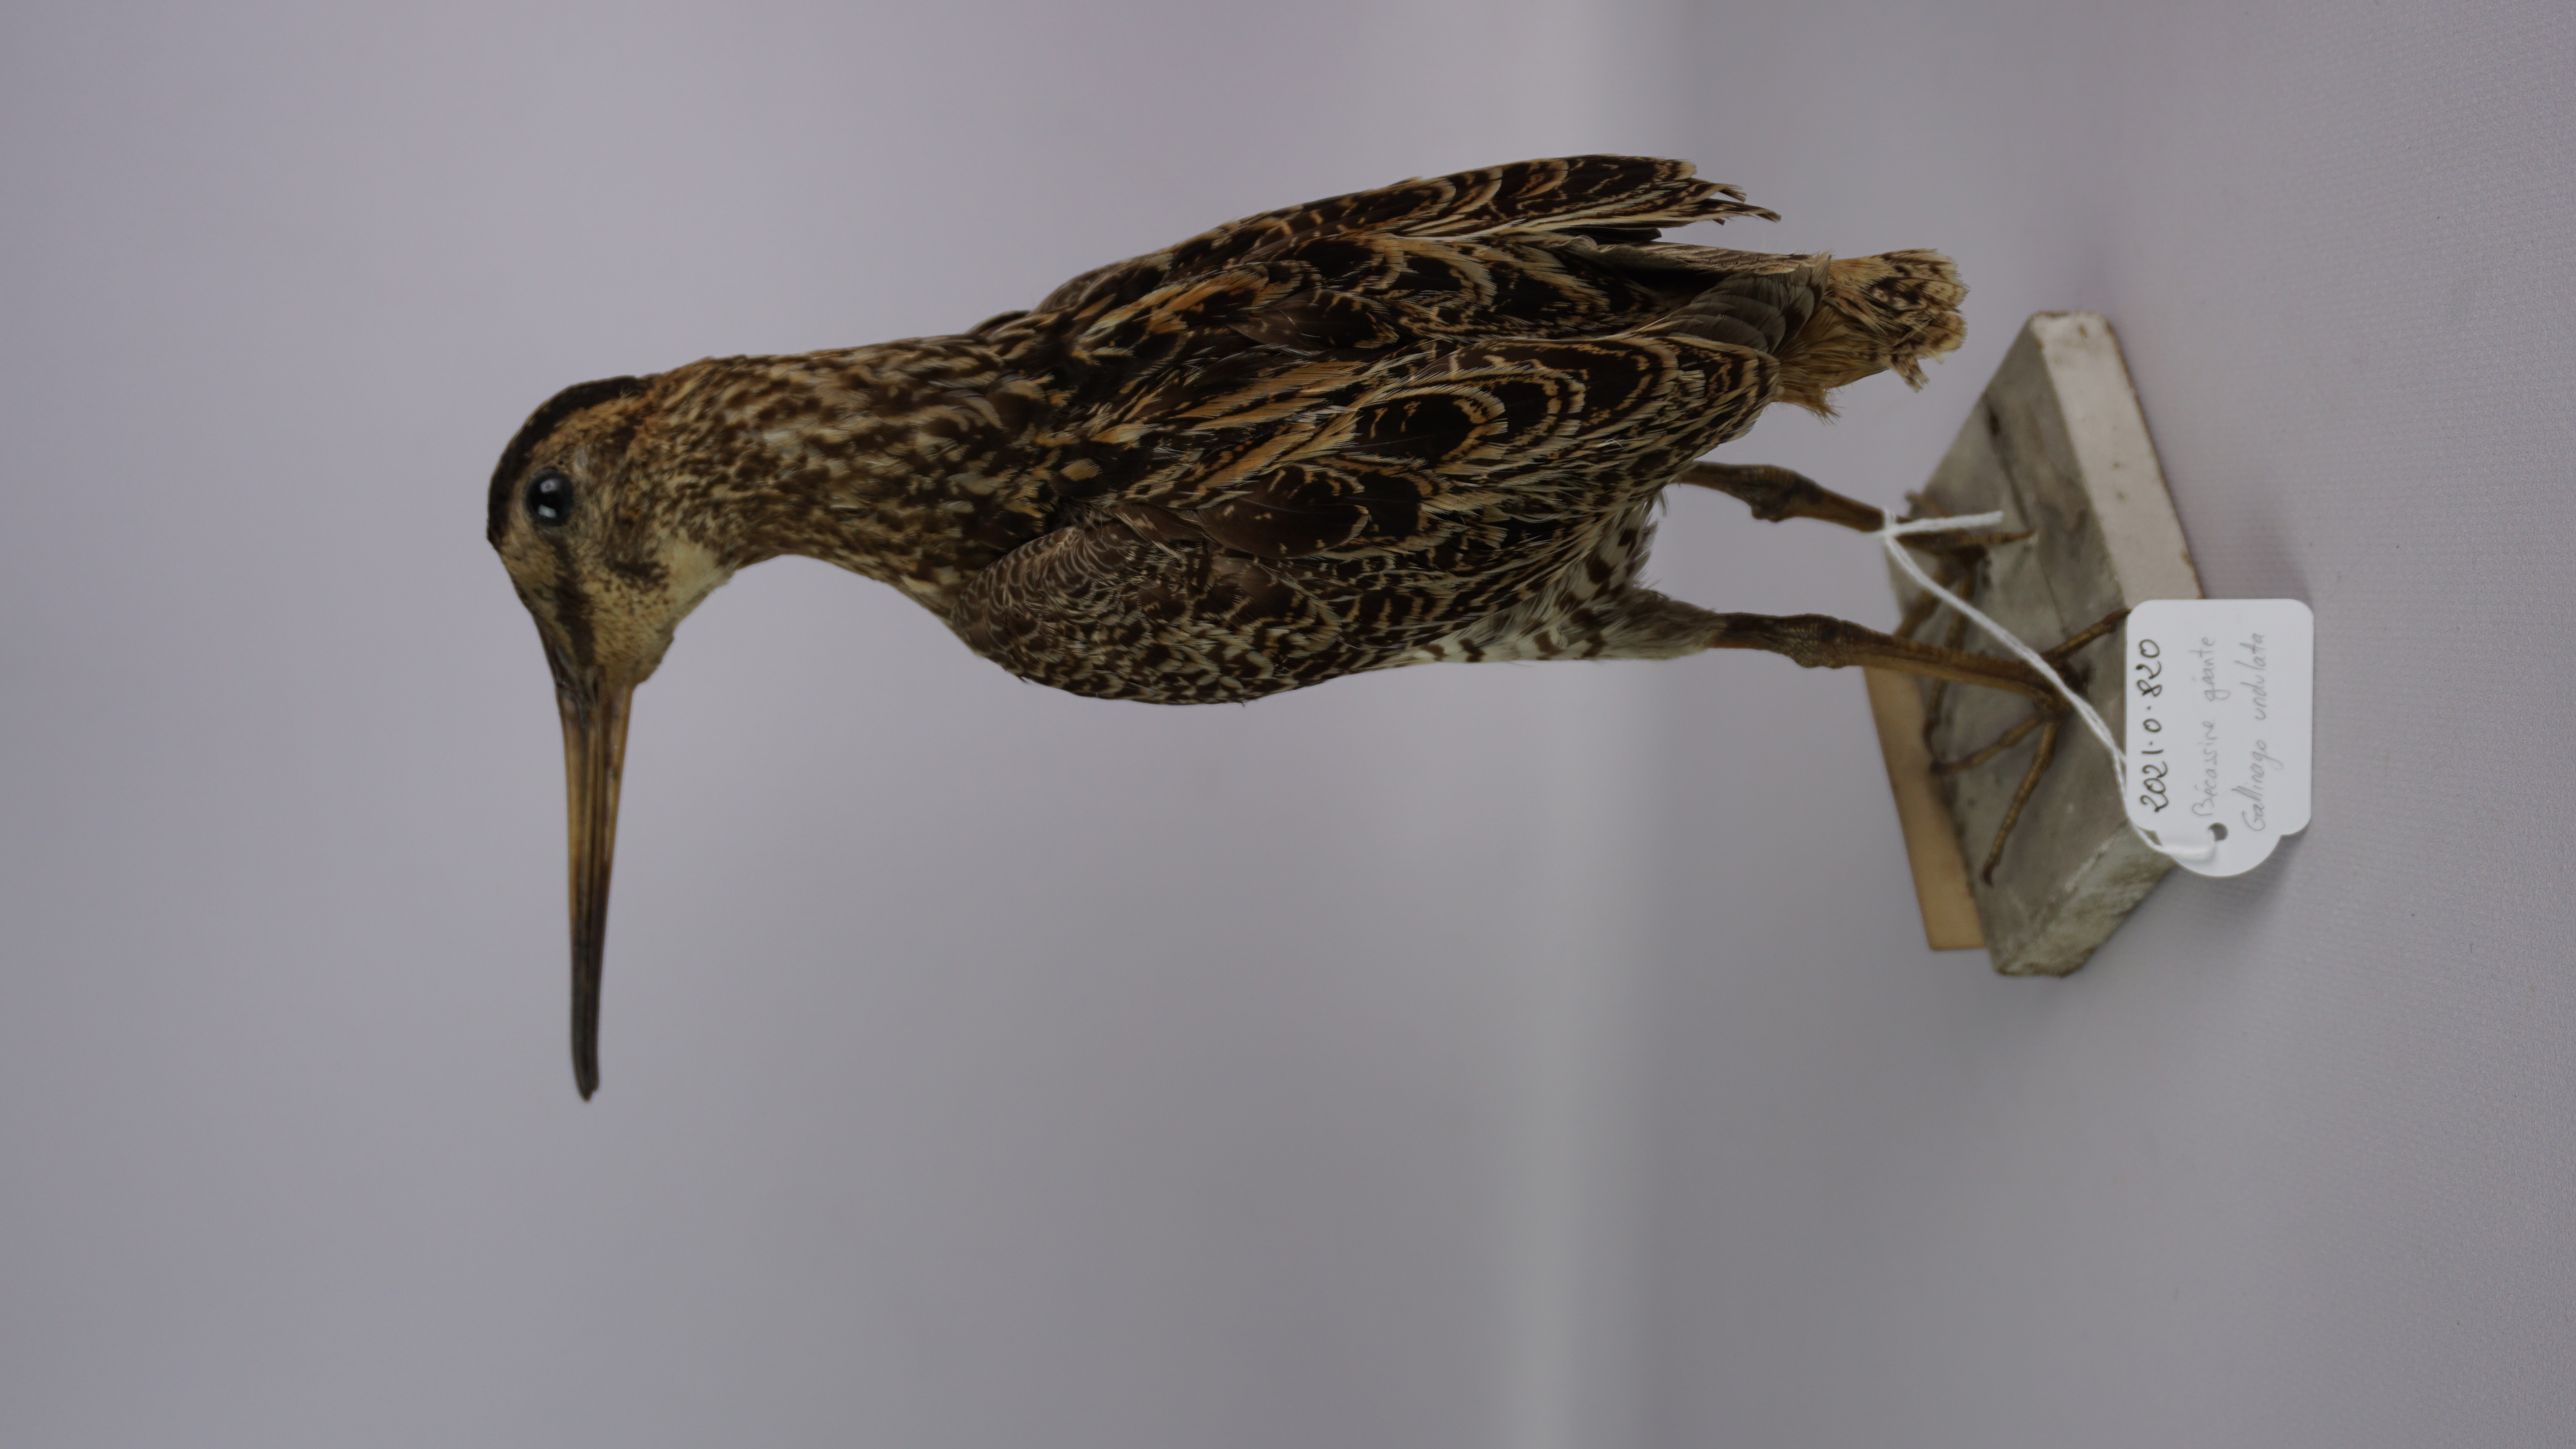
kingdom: Animalia
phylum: Chordata
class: Aves
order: Charadriiformes
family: Scolopacidae
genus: Gallinago
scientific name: Gallinago undulata
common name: Giant snipe
